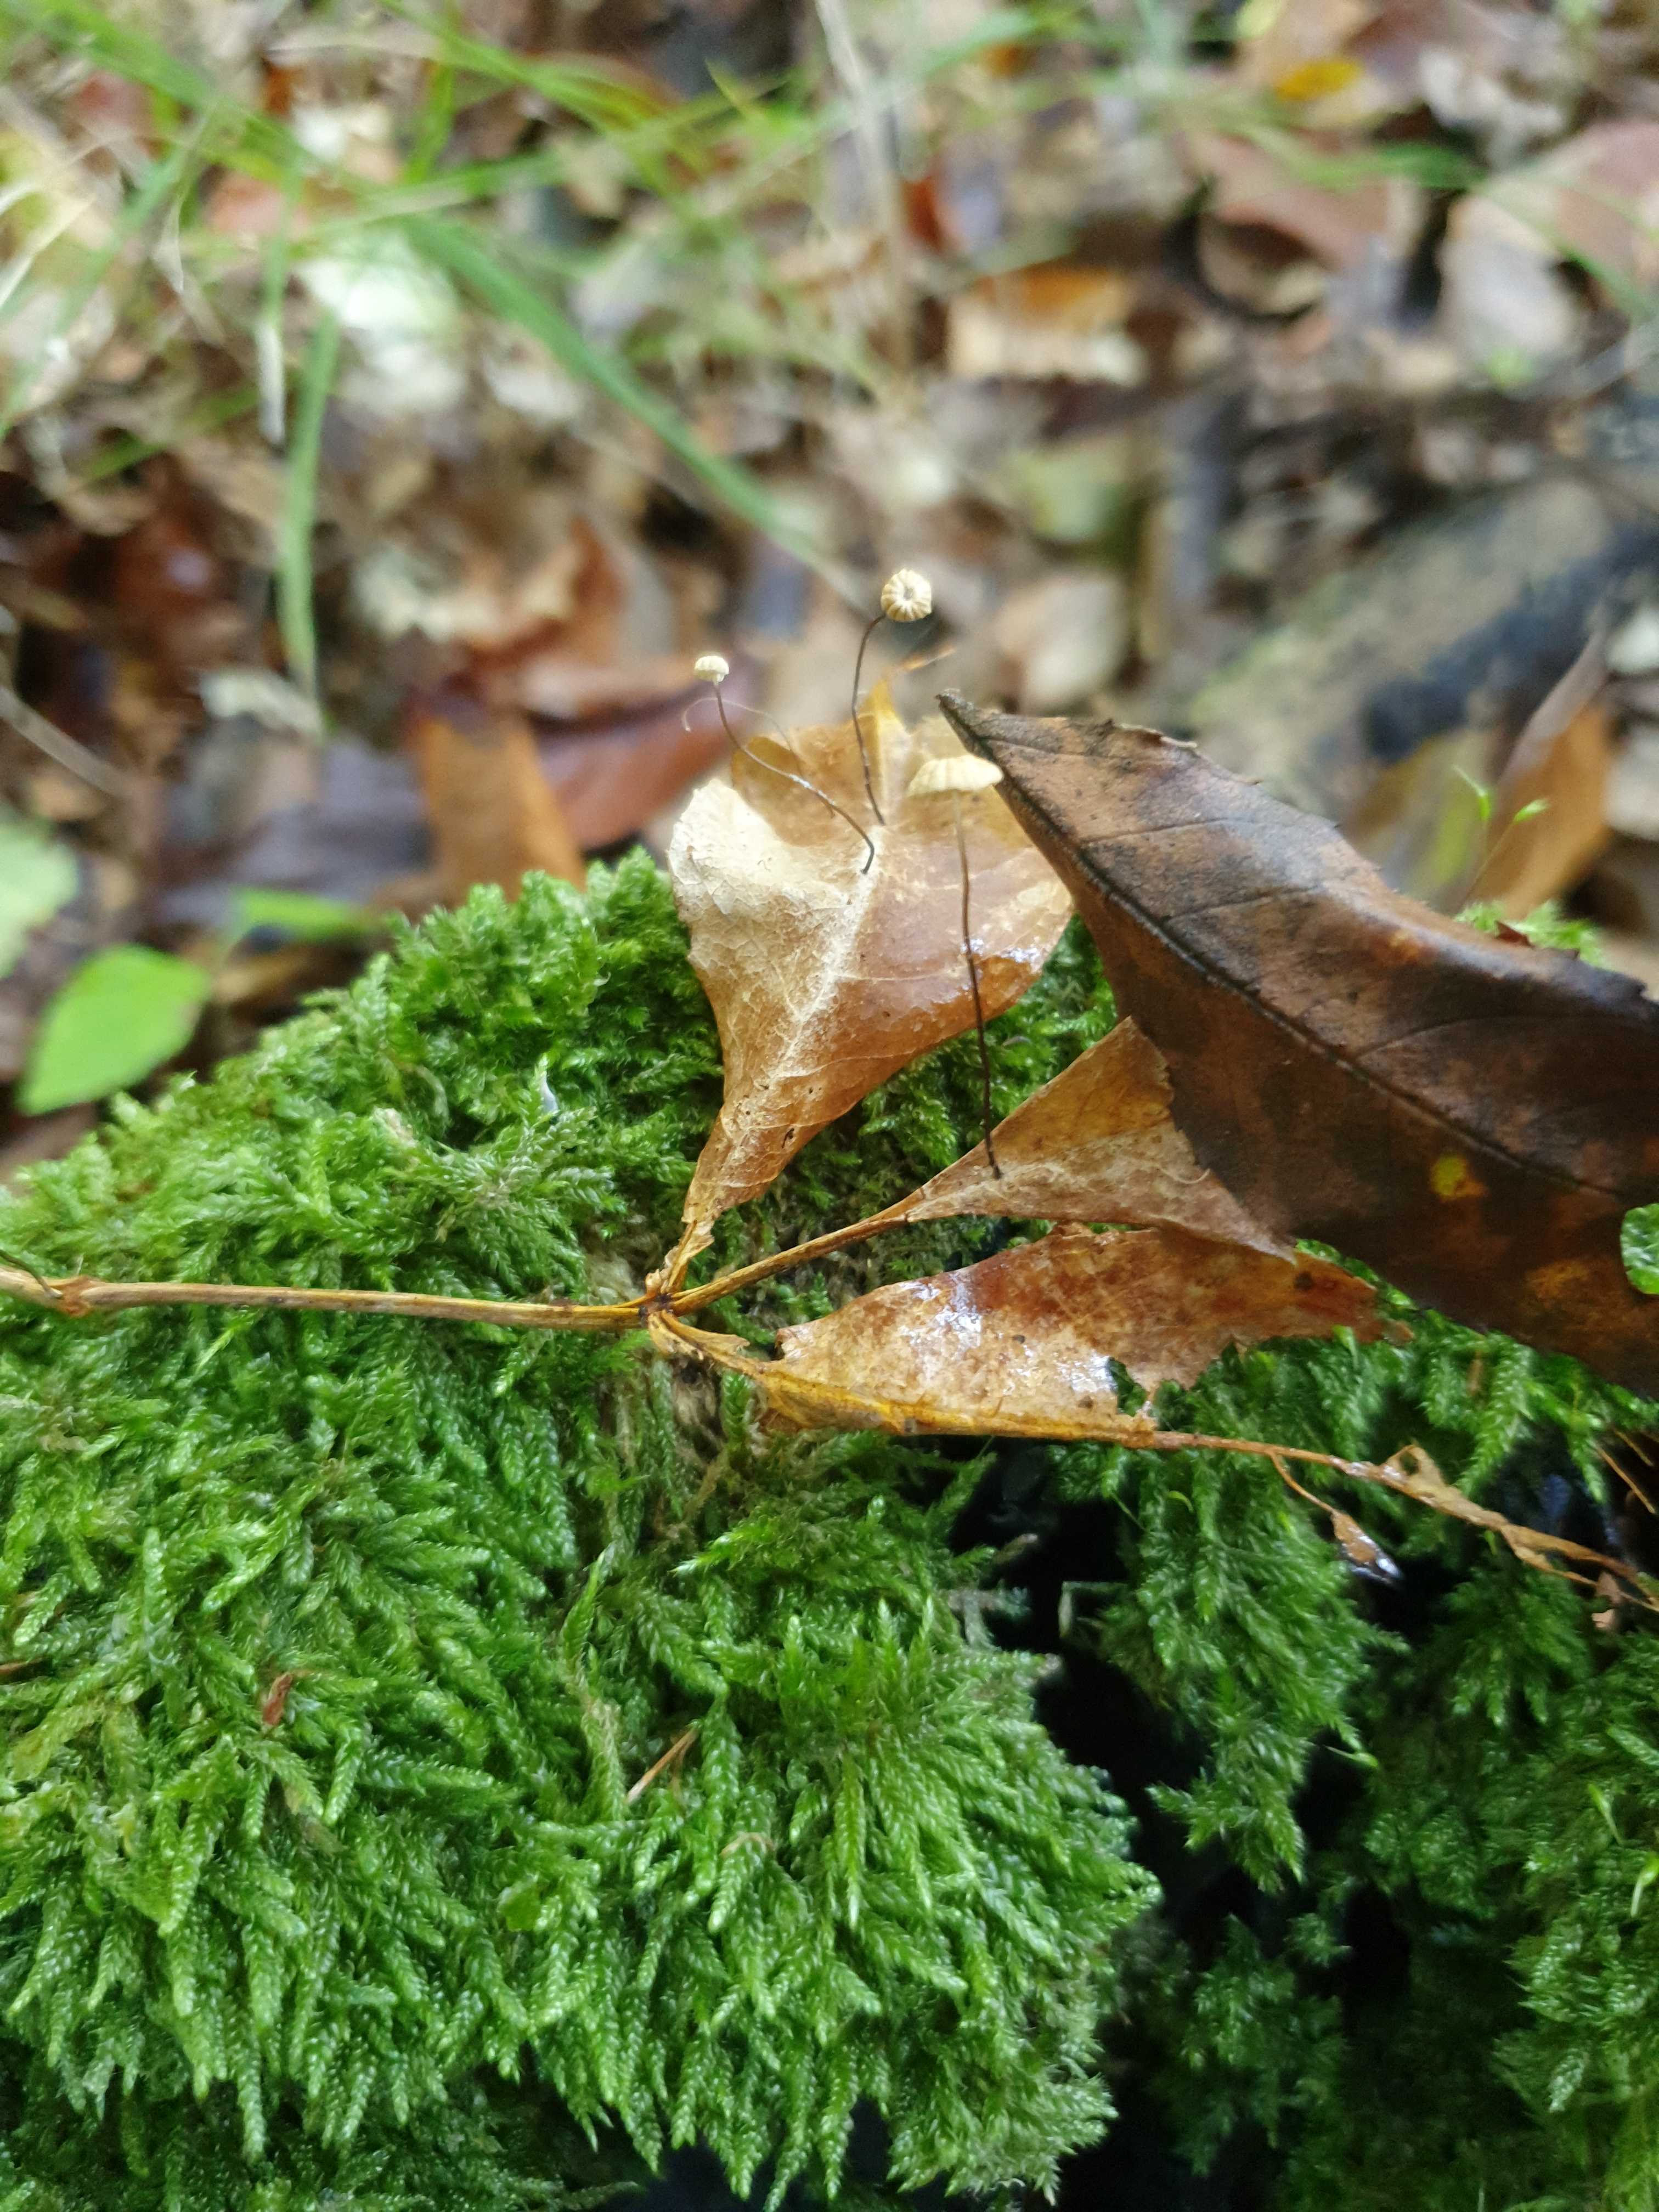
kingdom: Fungi
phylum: Basidiomycota
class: Agaricomycetes
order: Agaricales
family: Marasmiaceae
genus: Marasmius
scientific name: Marasmius bulliardii
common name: furet bruskhat
